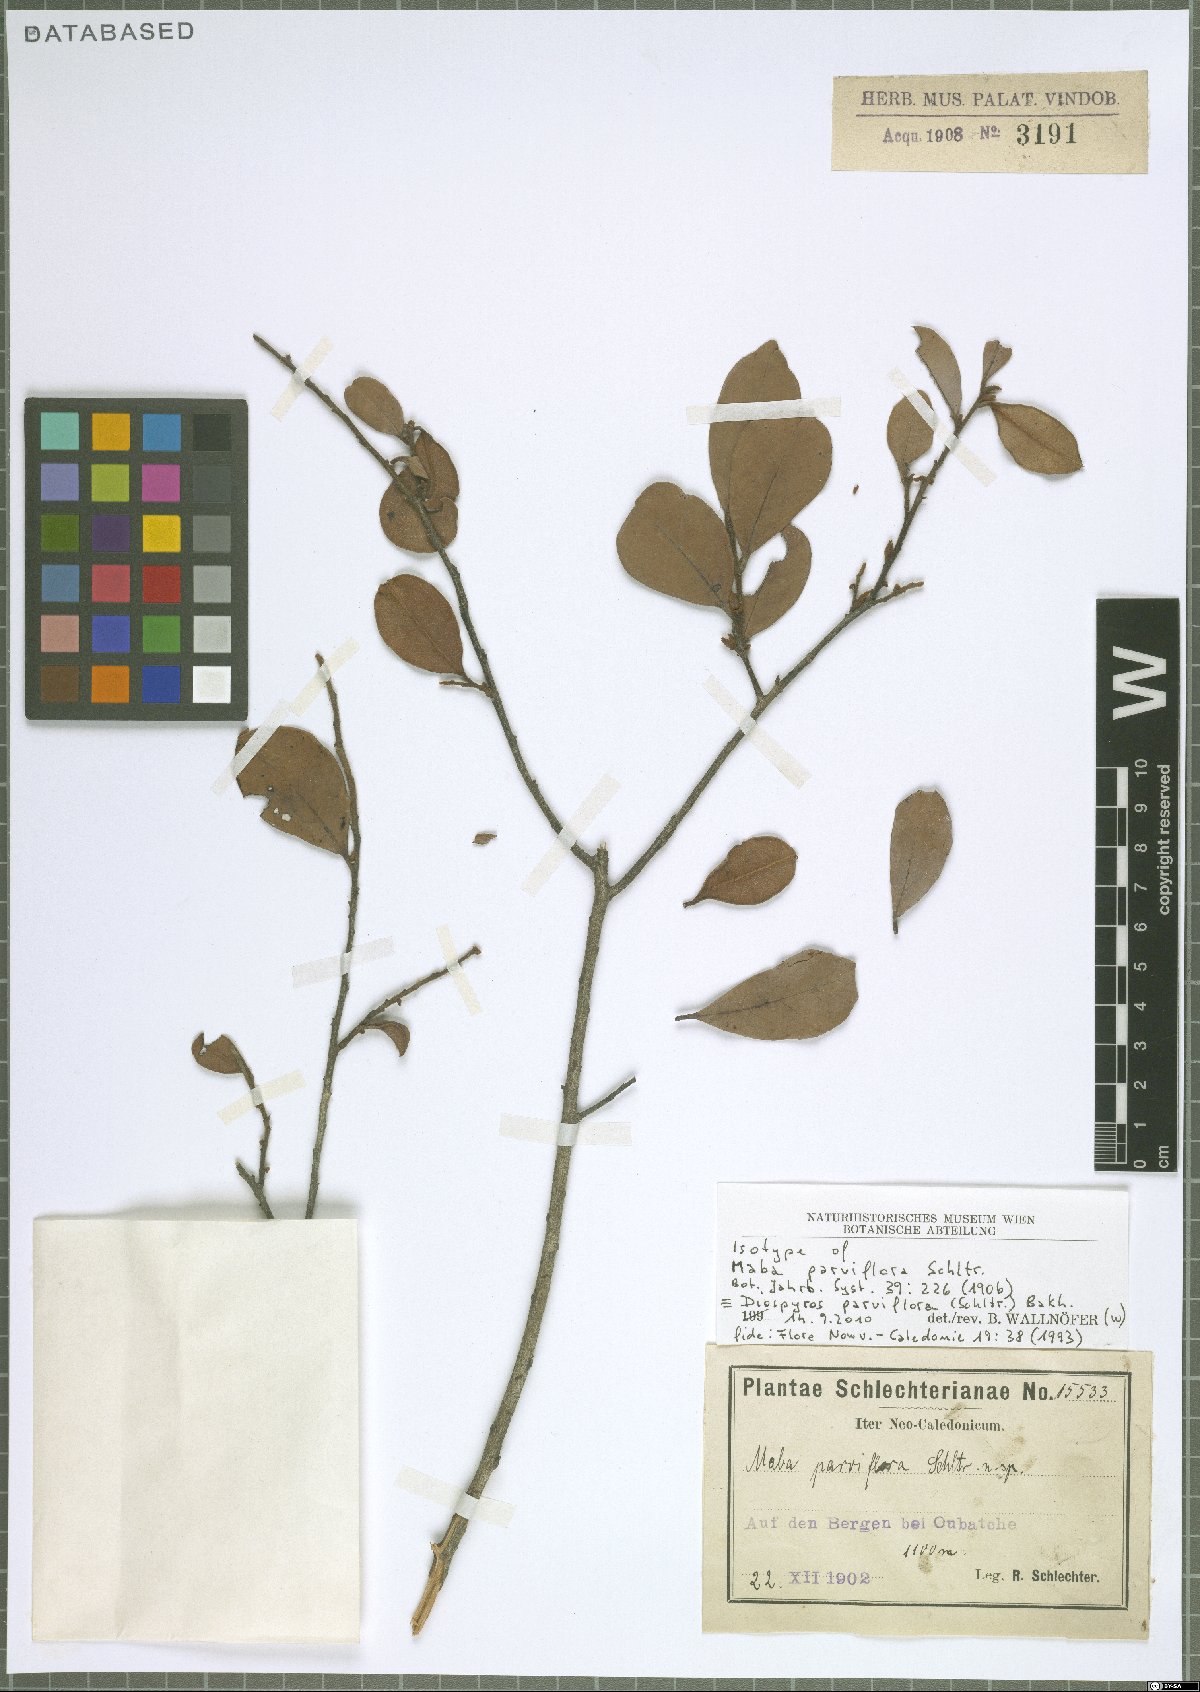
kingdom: Plantae
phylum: Tracheophyta
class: Magnoliopsida
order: Ericales
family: Ebenaceae
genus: Diospyros
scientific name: Diospyros parviflora
